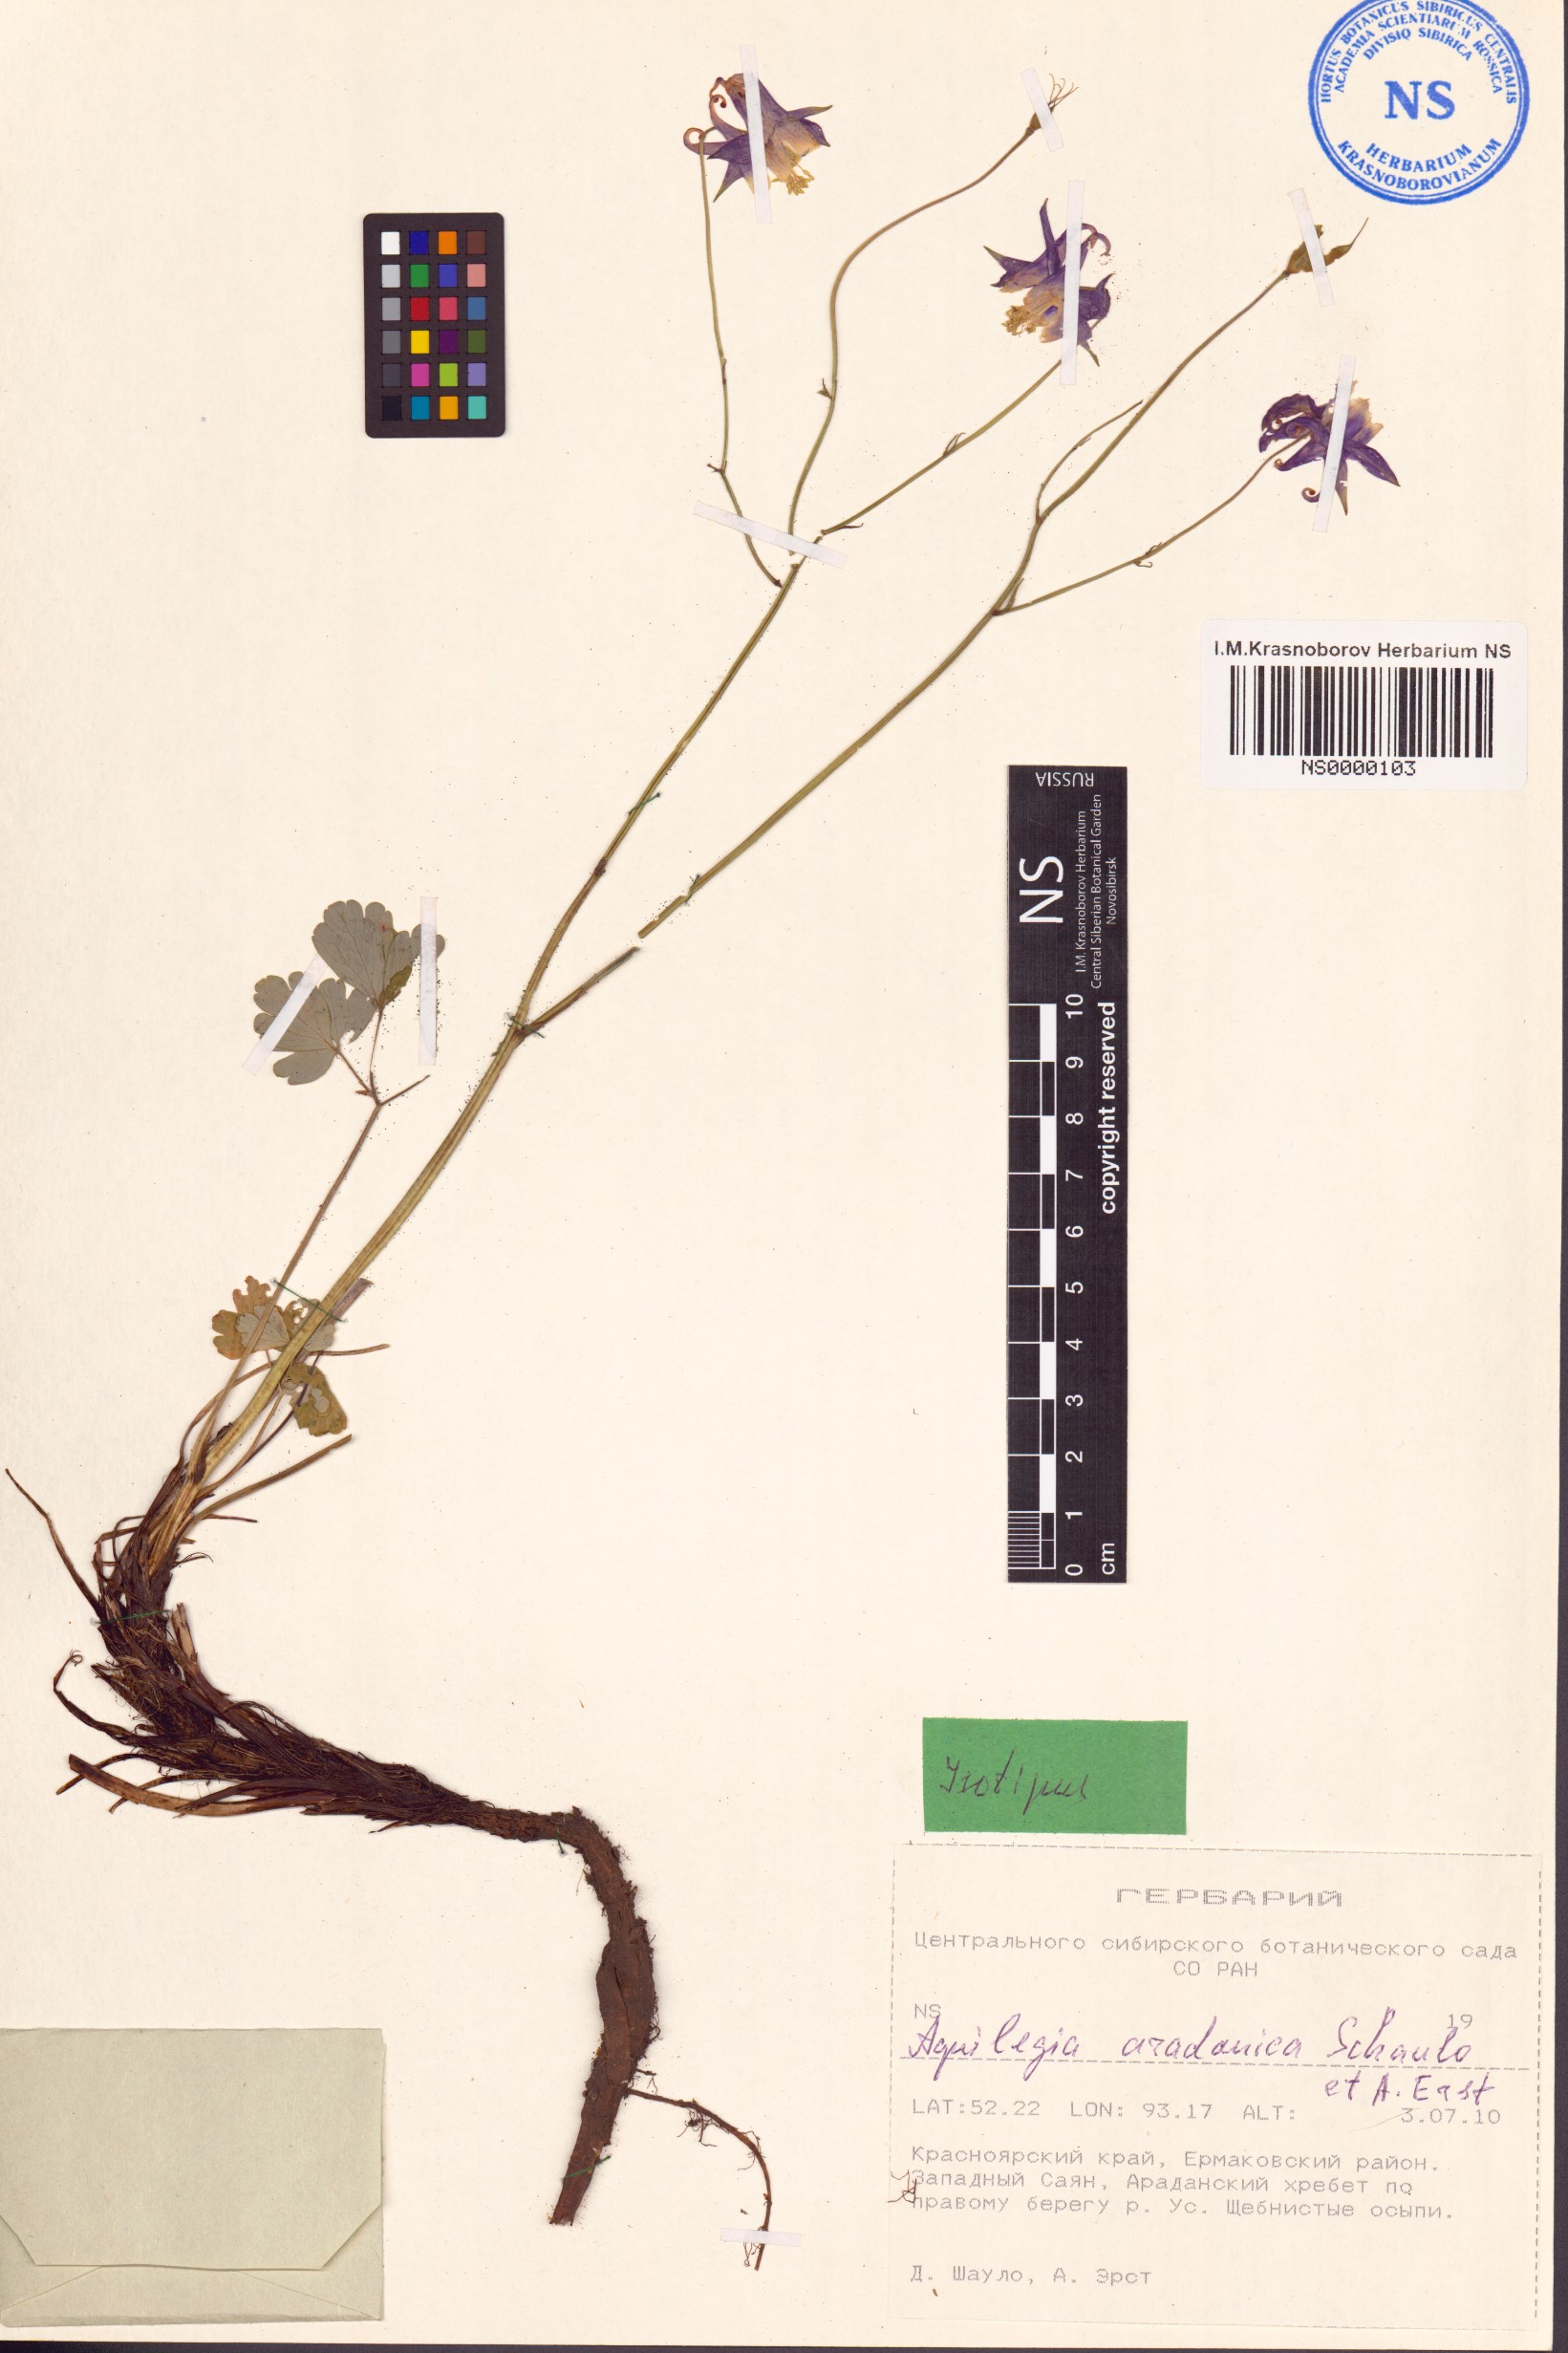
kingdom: Plantae
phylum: Tracheophyta
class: Magnoliopsida
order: Ranunculales
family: Ranunculaceae
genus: Aquilegia
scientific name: Aquilegia aradanica
